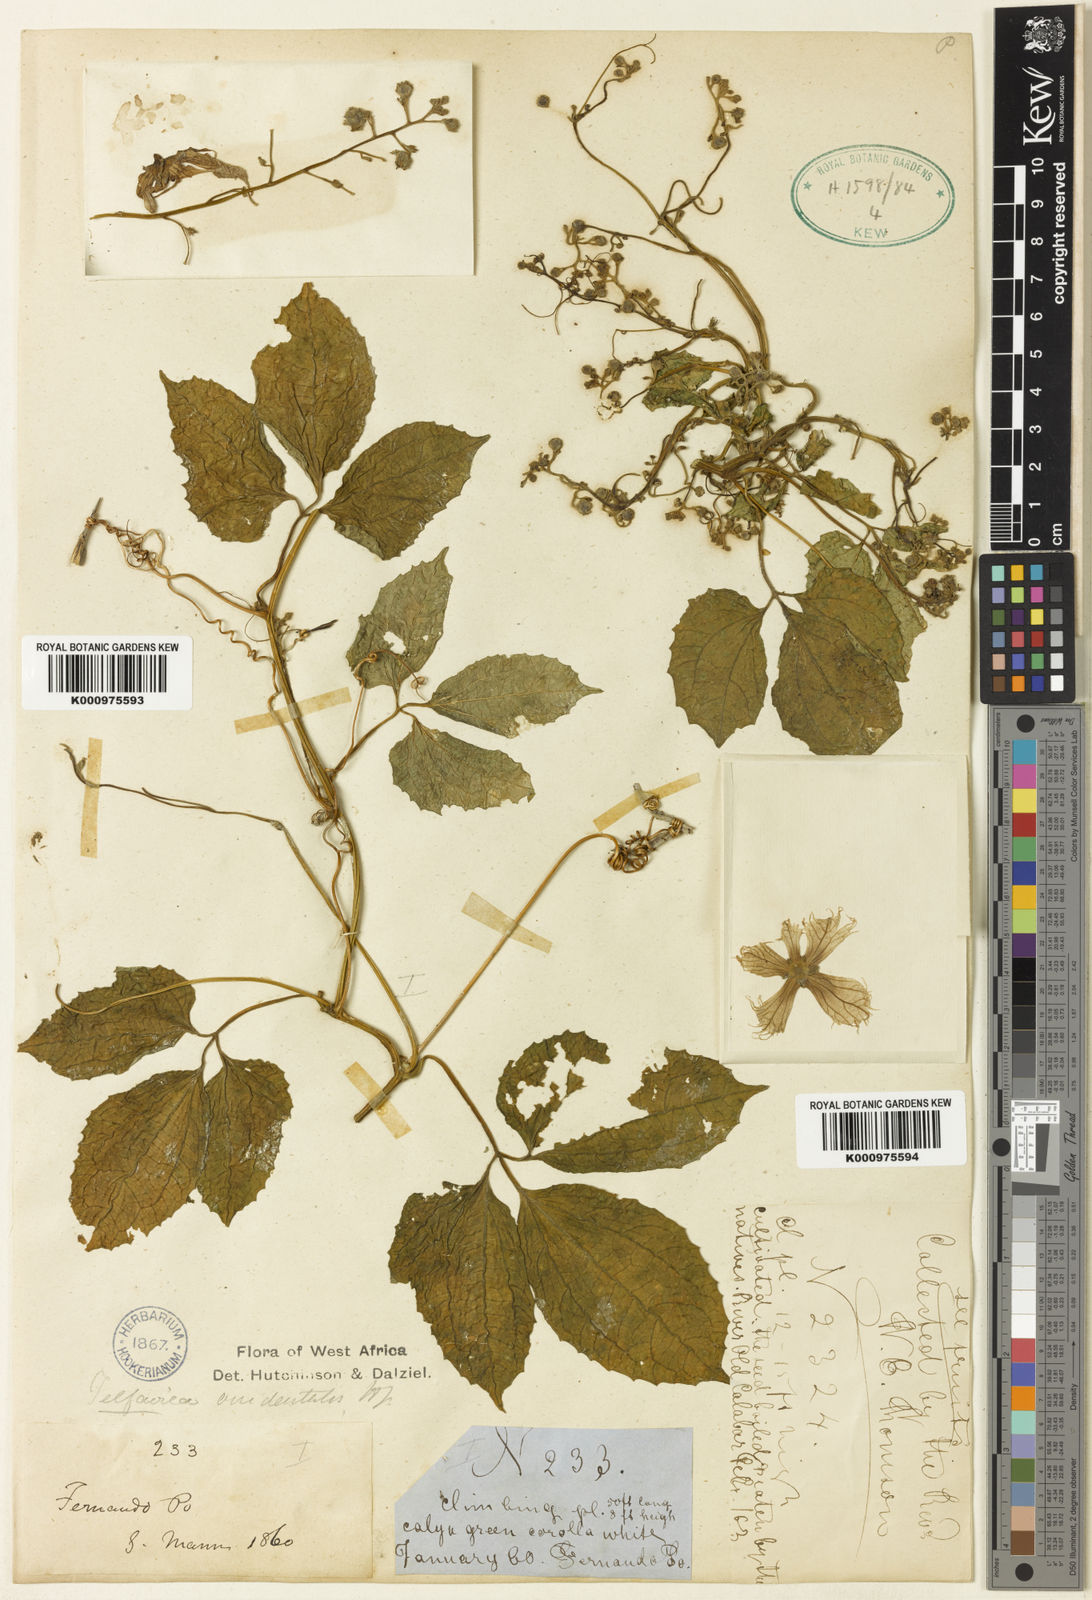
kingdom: Plantae
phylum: Tracheophyta
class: Magnoliopsida
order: Cucurbitales
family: Cucurbitaceae
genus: Telfairia
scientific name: Telfairia occidentalis
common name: Oysternut
